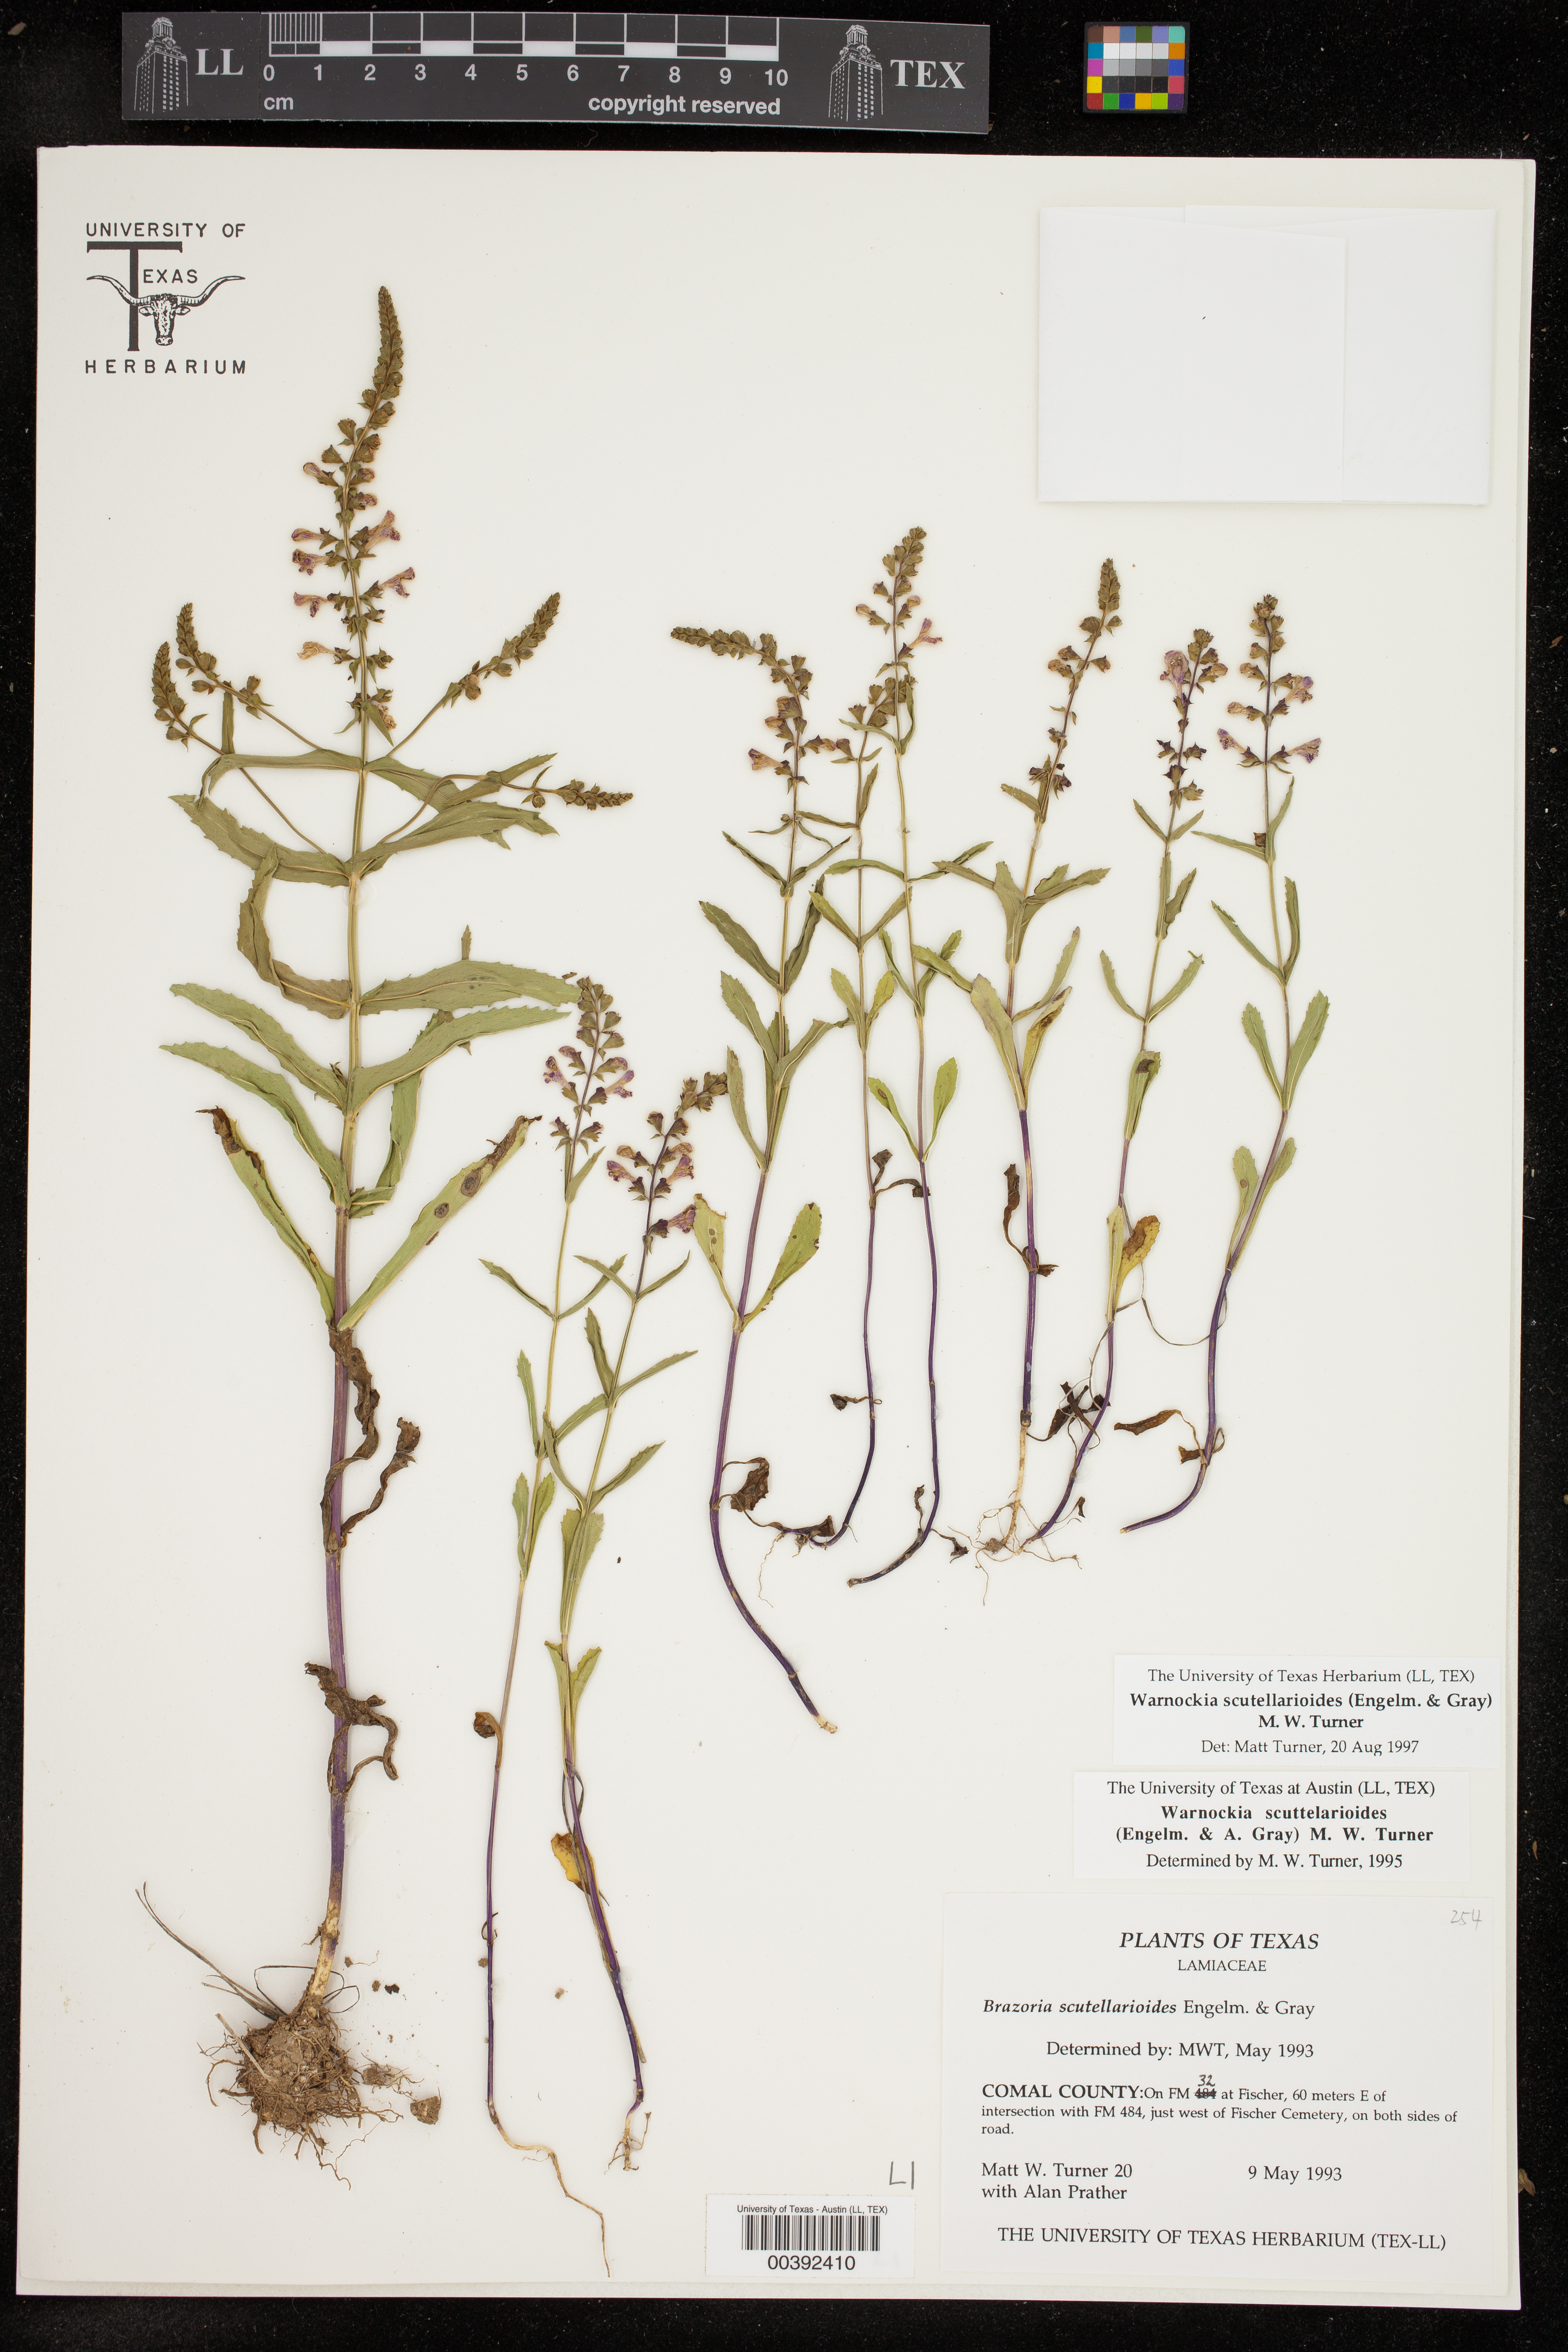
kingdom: Plantae
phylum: Tracheophyta
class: Magnoliopsida
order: Lamiales
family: Lamiaceae
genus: Warnockia
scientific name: Warnockia scutellarioides
